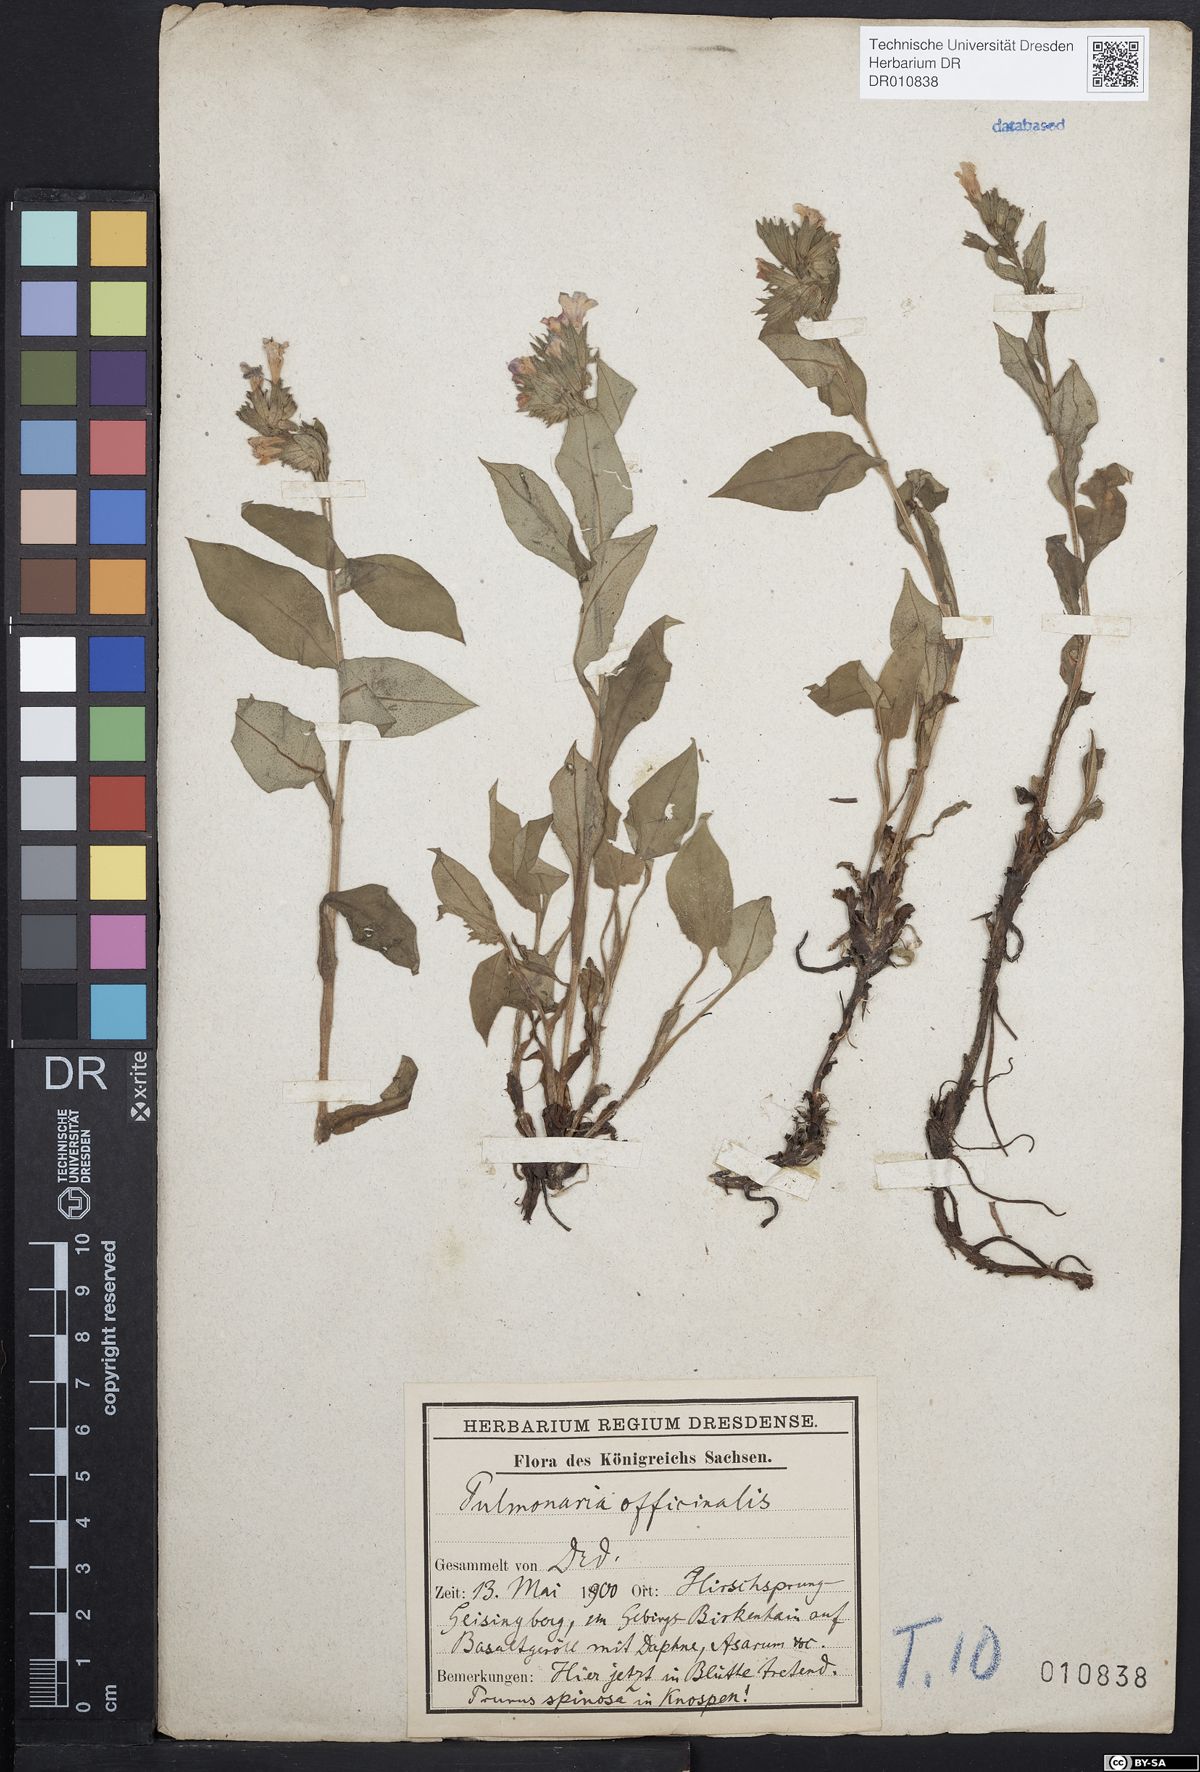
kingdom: Plantae
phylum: Tracheophyta
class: Magnoliopsida
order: Boraginales
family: Boraginaceae
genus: Pulmonaria
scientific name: Pulmonaria obscura
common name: Suffolk lungwort
